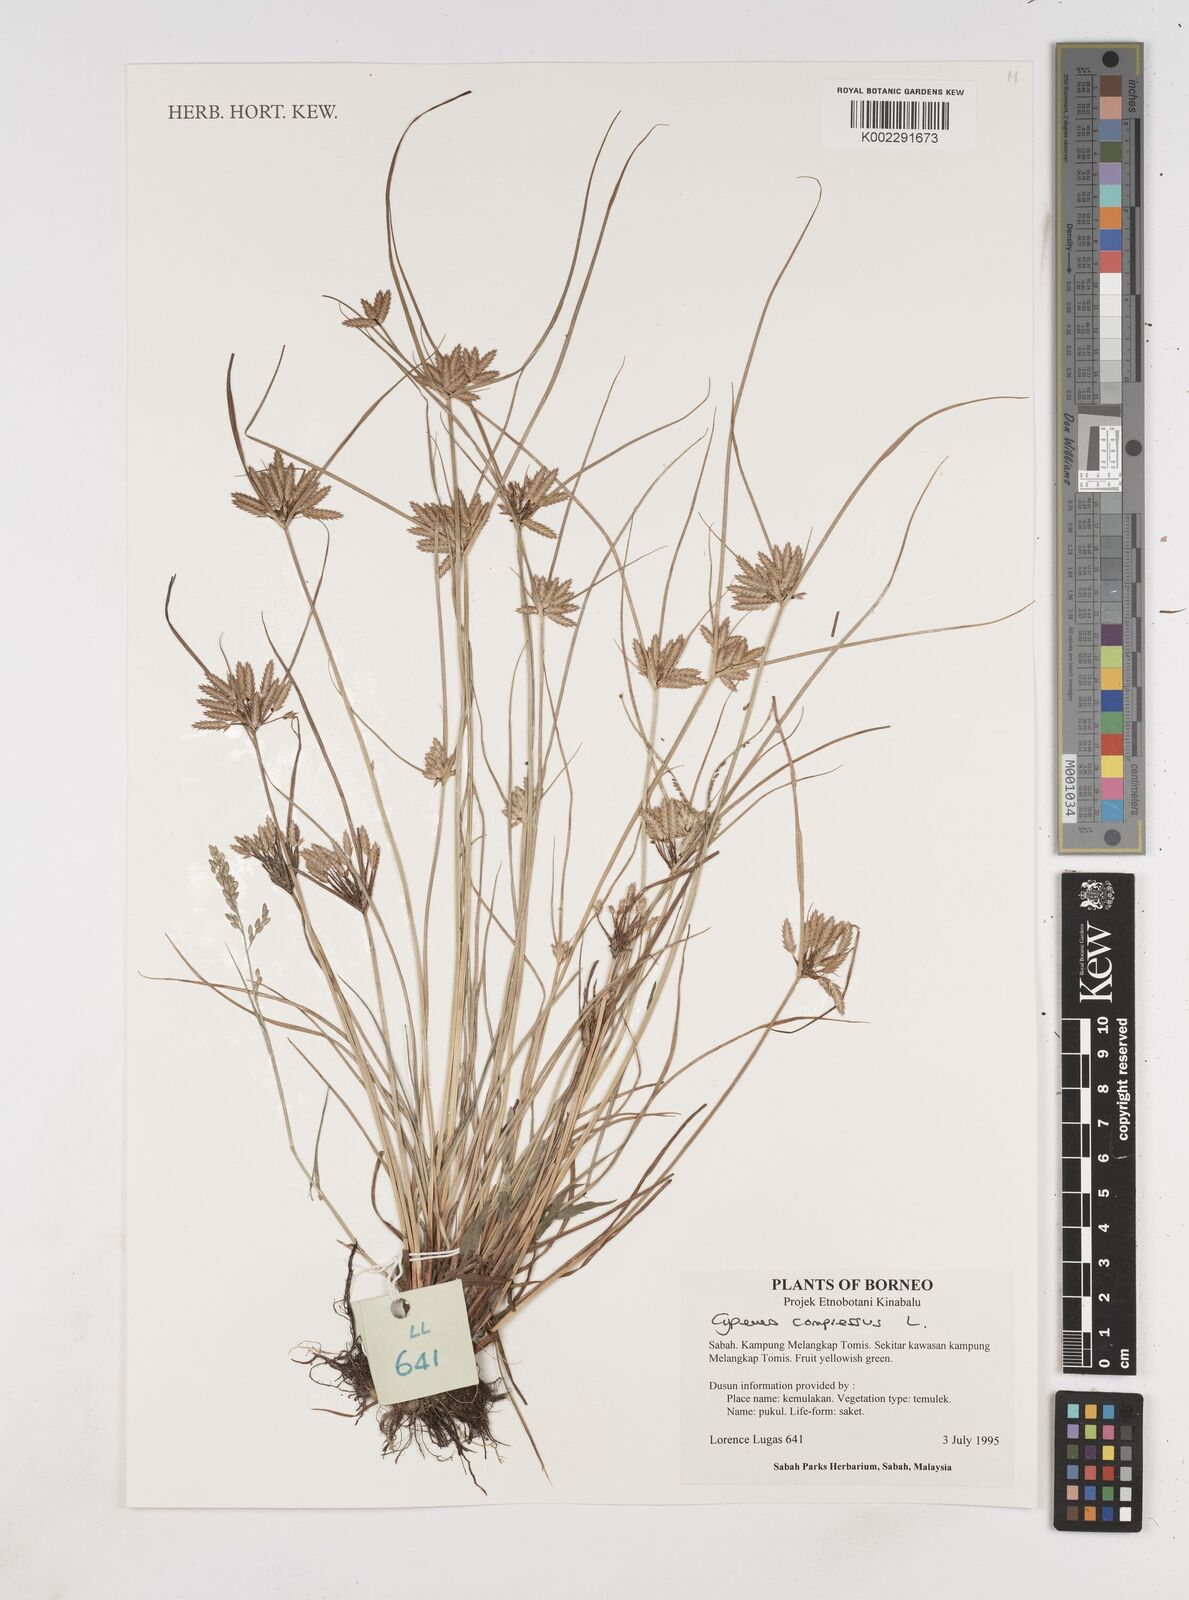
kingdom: Plantae
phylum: Tracheophyta
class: Liliopsida
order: Poales
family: Cyperaceae
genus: Cyperus
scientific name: Cyperus compressus
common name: Poorland flatsedge
